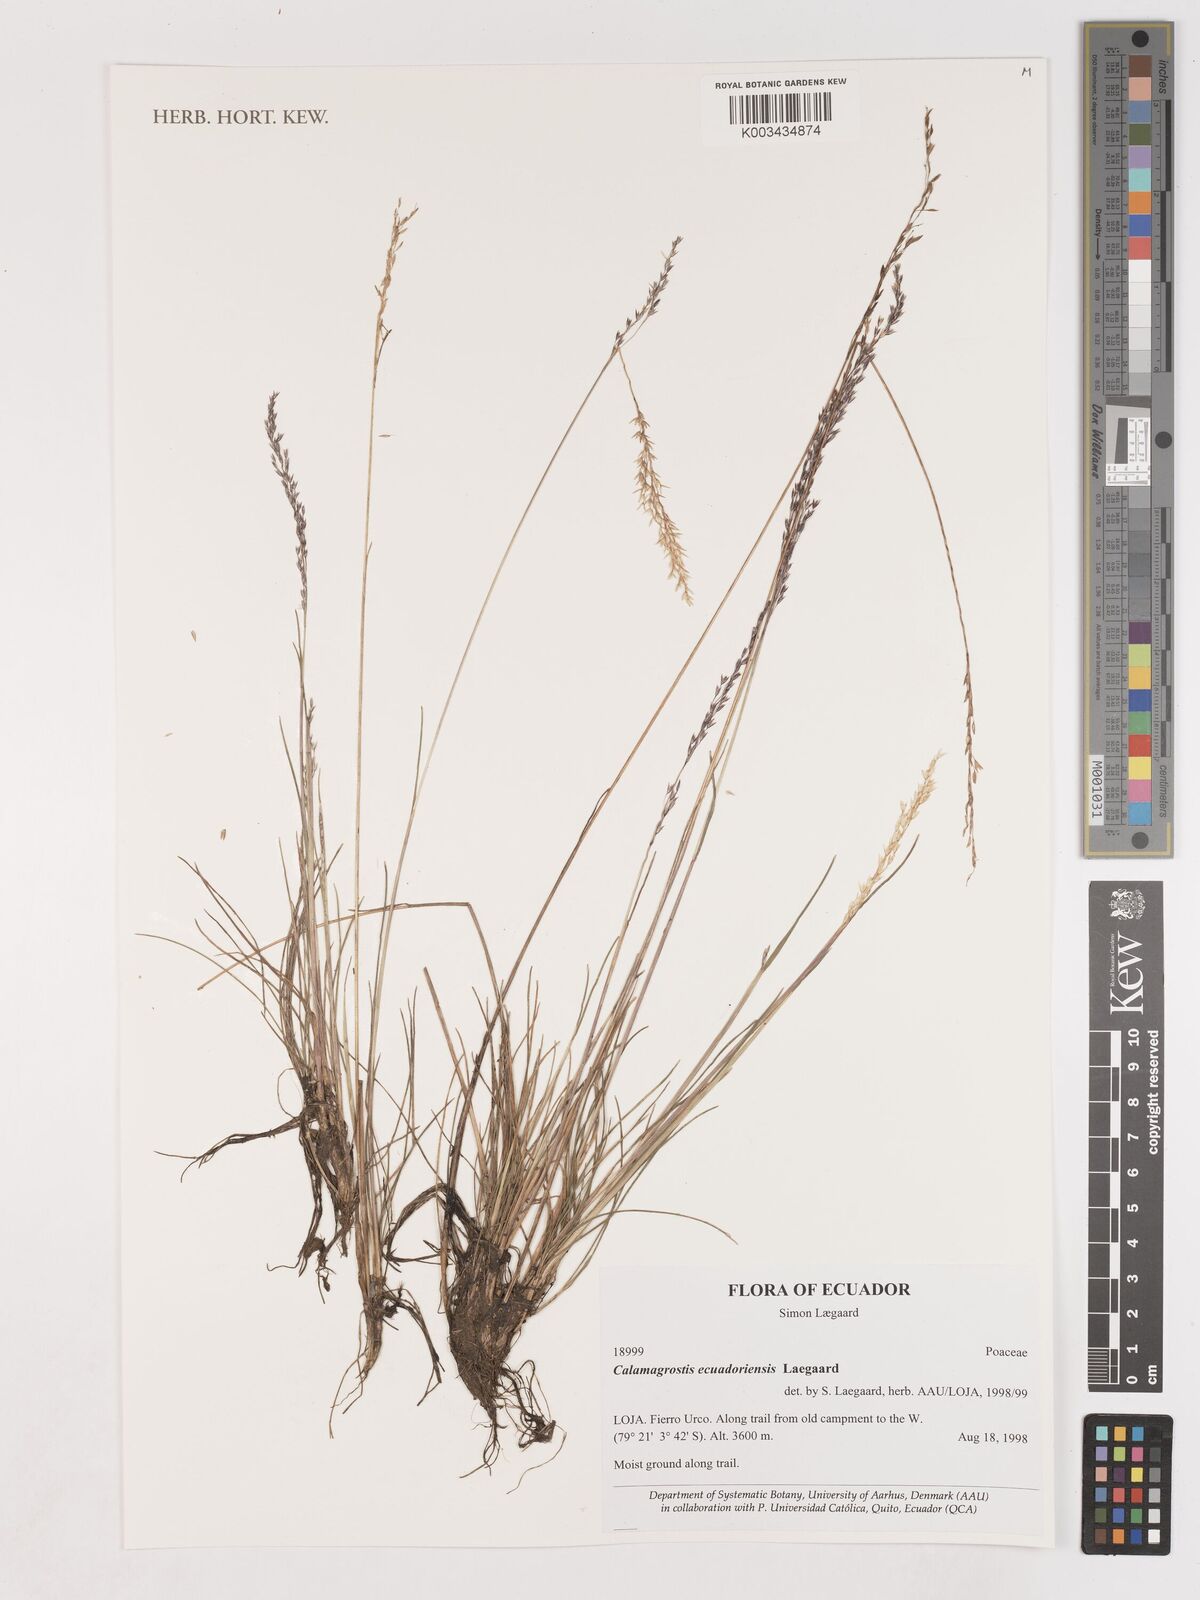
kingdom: Plantae
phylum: Tracheophyta
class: Liliopsida
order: Poales
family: Poaceae
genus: Calamagrostis
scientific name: Calamagrostis
